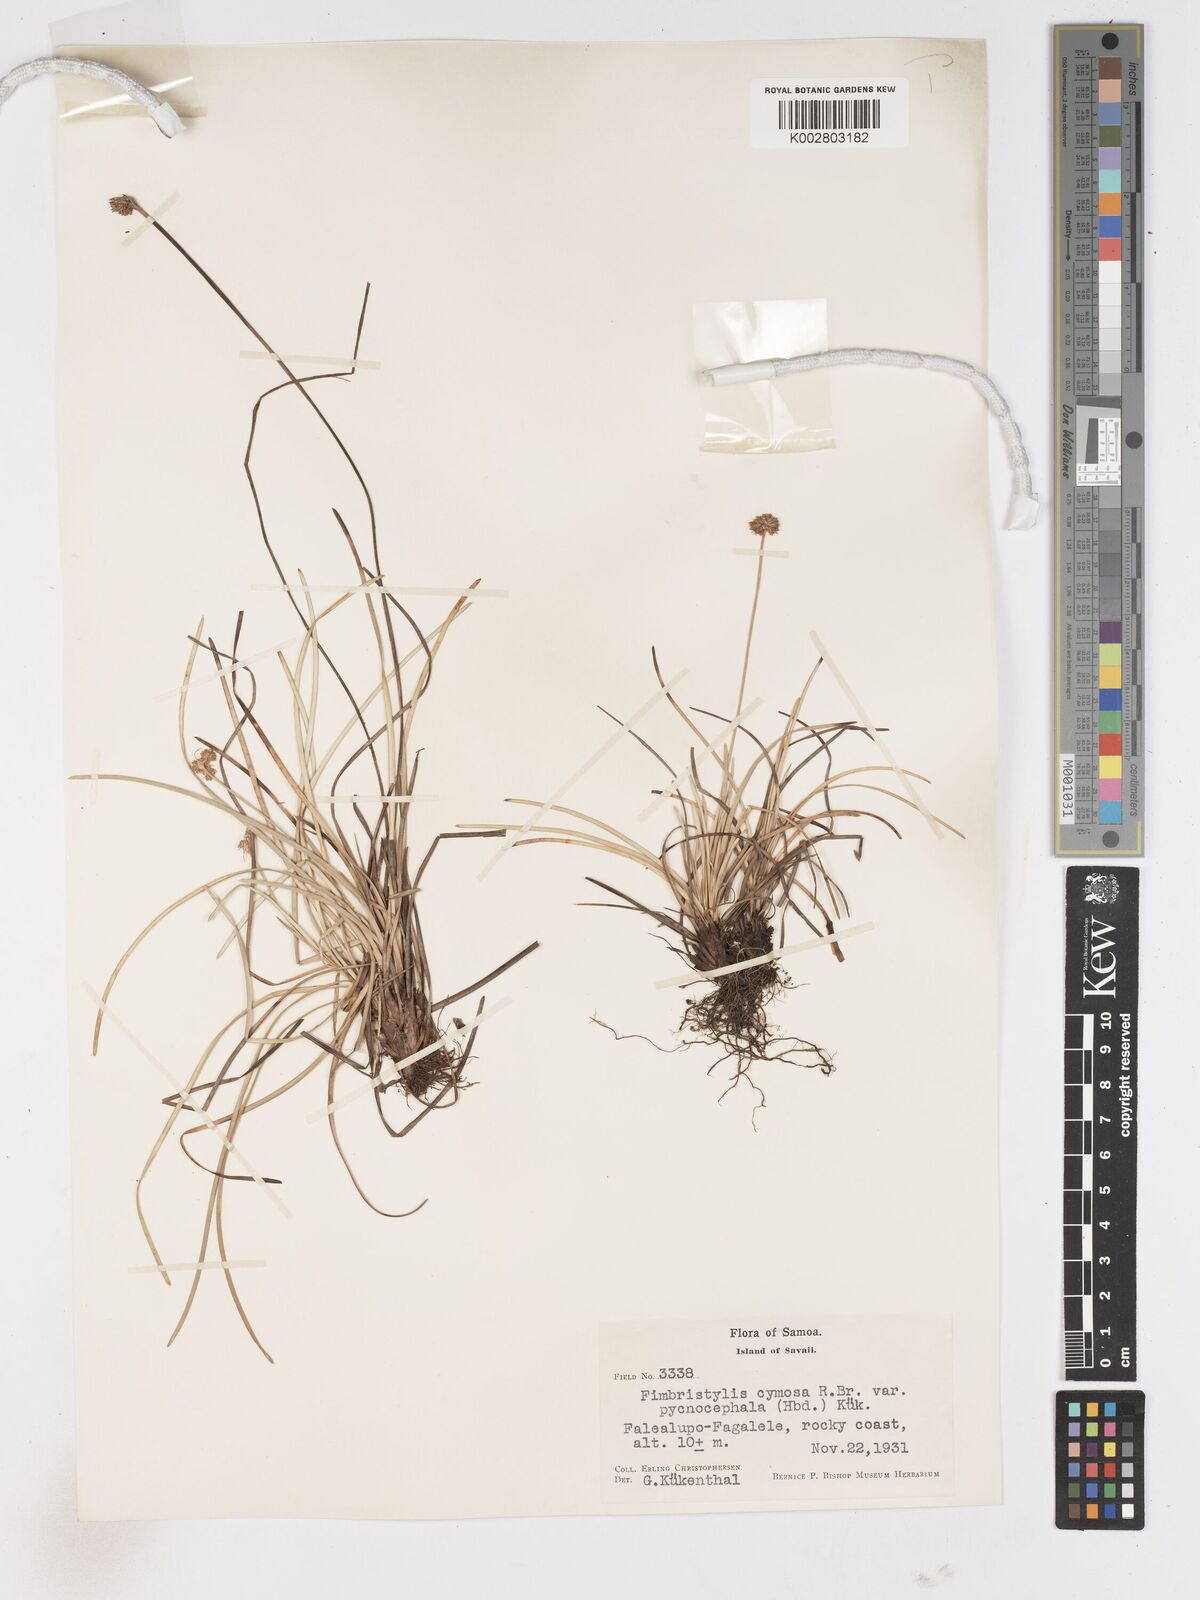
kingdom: Plantae
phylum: Tracheophyta
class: Liliopsida
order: Poales
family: Cyperaceae
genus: Fimbristylis
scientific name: Fimbristylis cymosa
